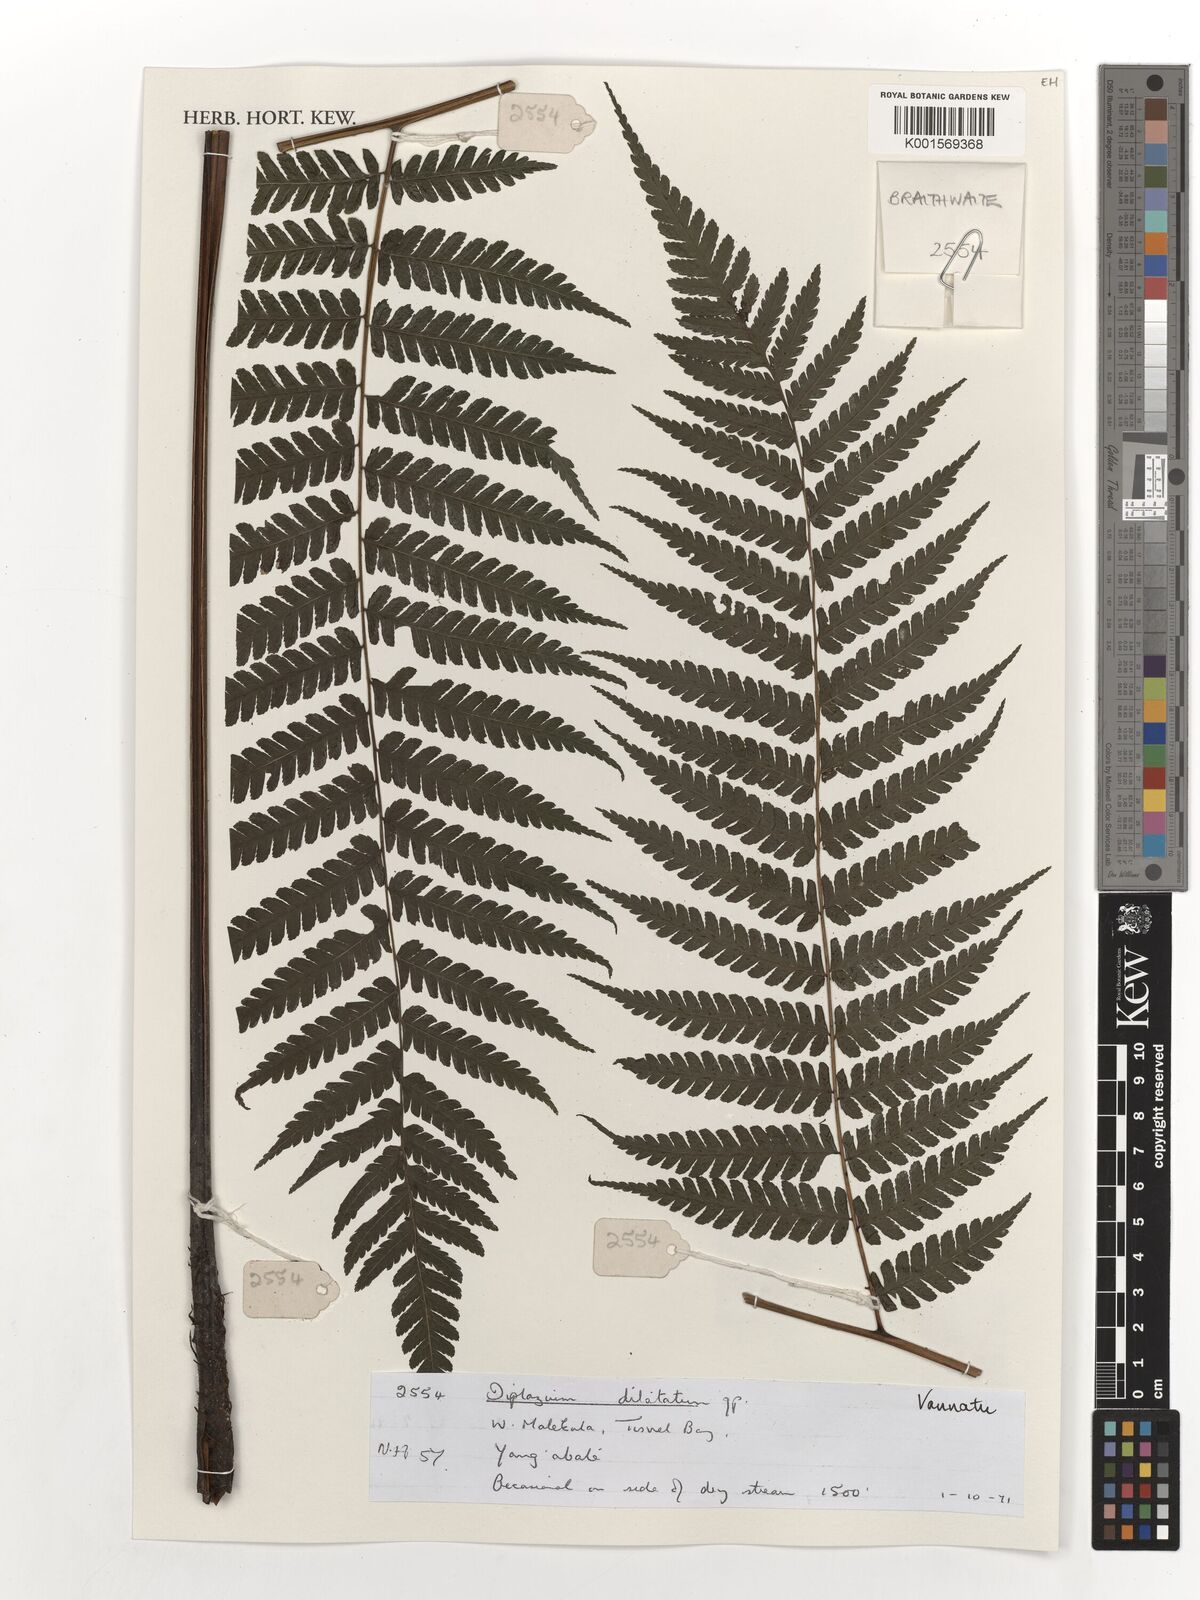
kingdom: Plantae
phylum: Tracheophyta
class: Polypodiopsida
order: Polypodiales
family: Athyriaceae
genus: Diplazium
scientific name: Diplazium dilatatum
